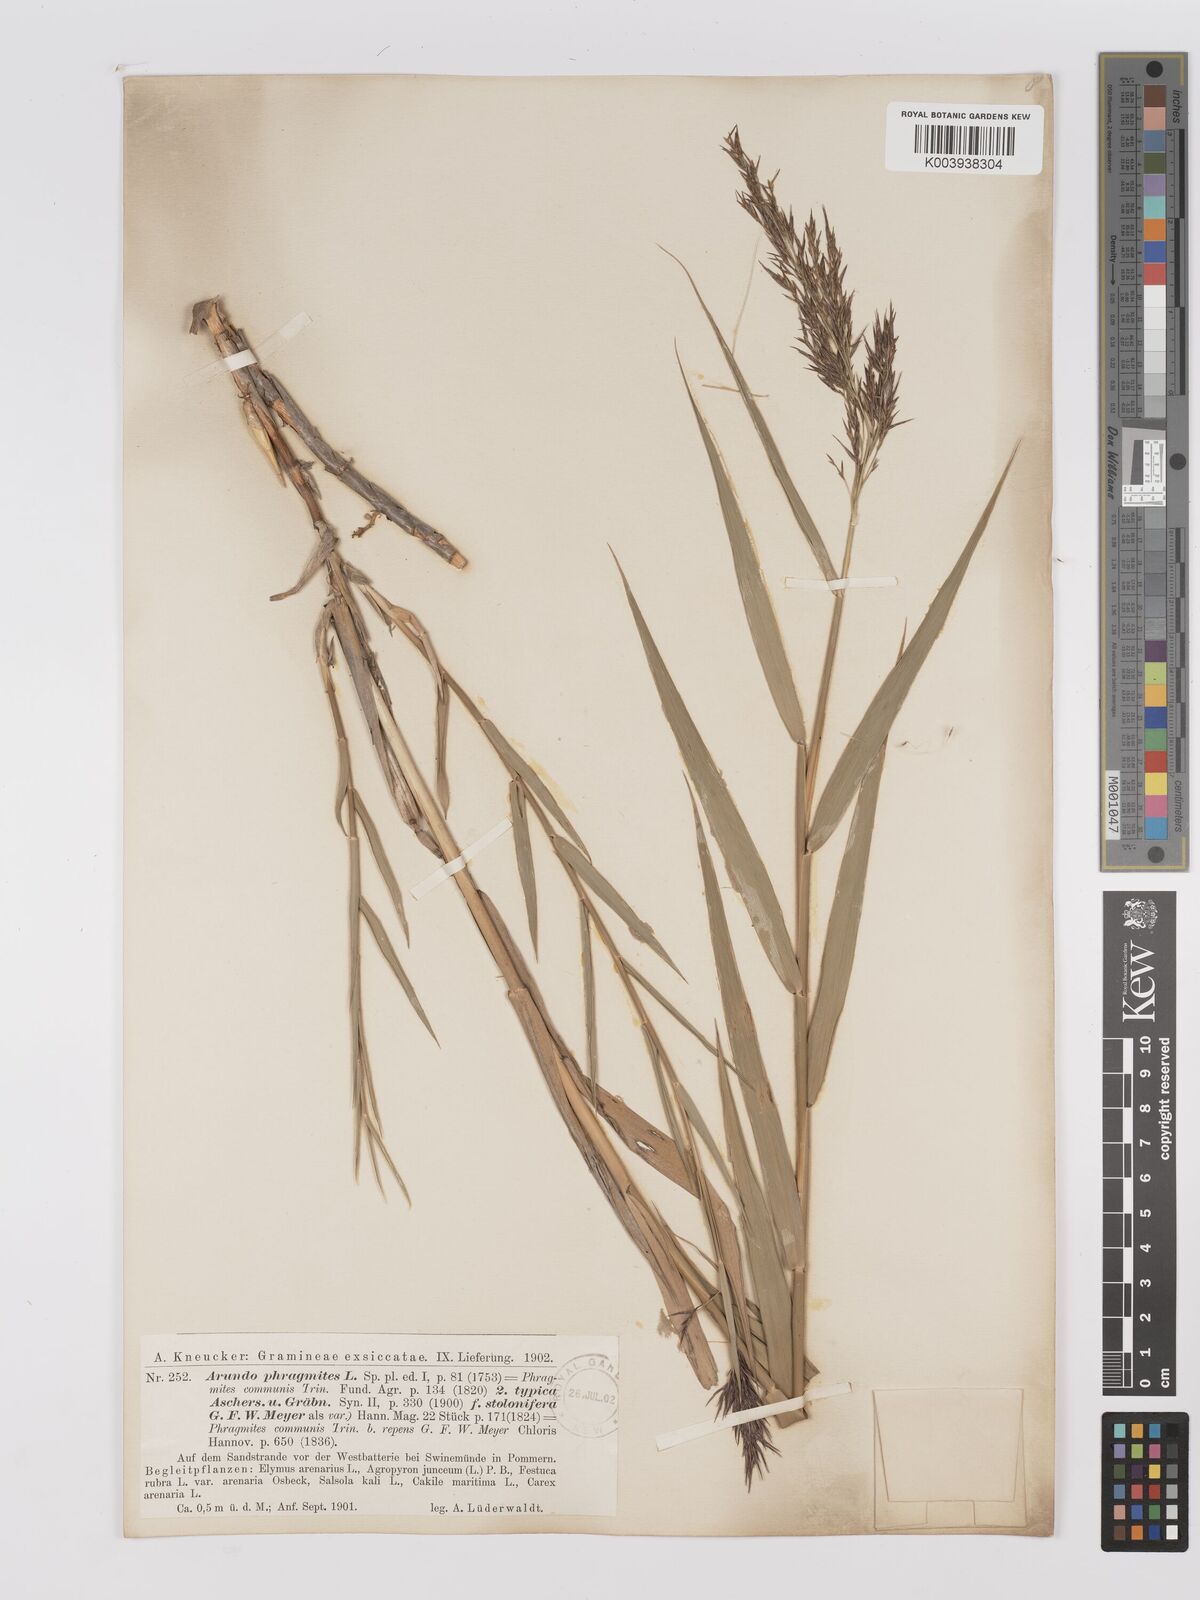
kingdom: Plantae
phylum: Tracheophyta
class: Liliopsida
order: Poales
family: Poaceae
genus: Phragmites
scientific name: Phragmites australis
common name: Common reed
